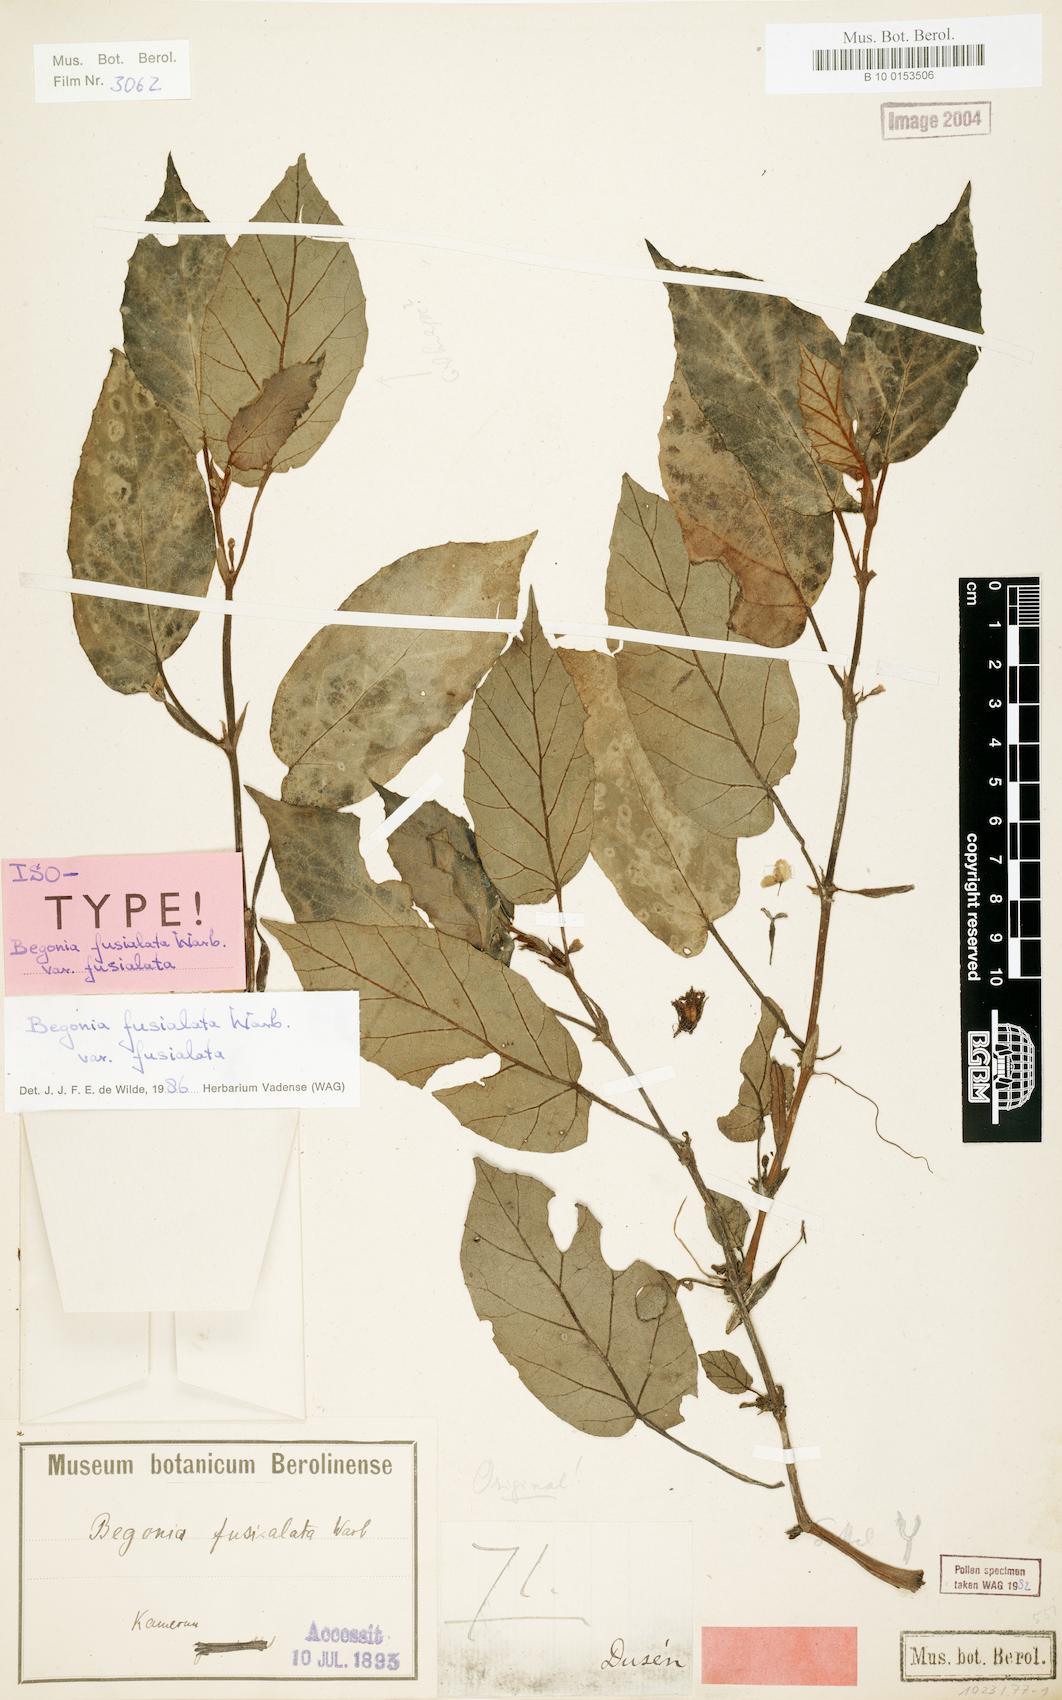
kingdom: Plantae
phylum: Tracheophyta
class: Magnoliopsida
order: Cucurbitales
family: Begoniaceae
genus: Begonia
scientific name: Begonia fusialata
